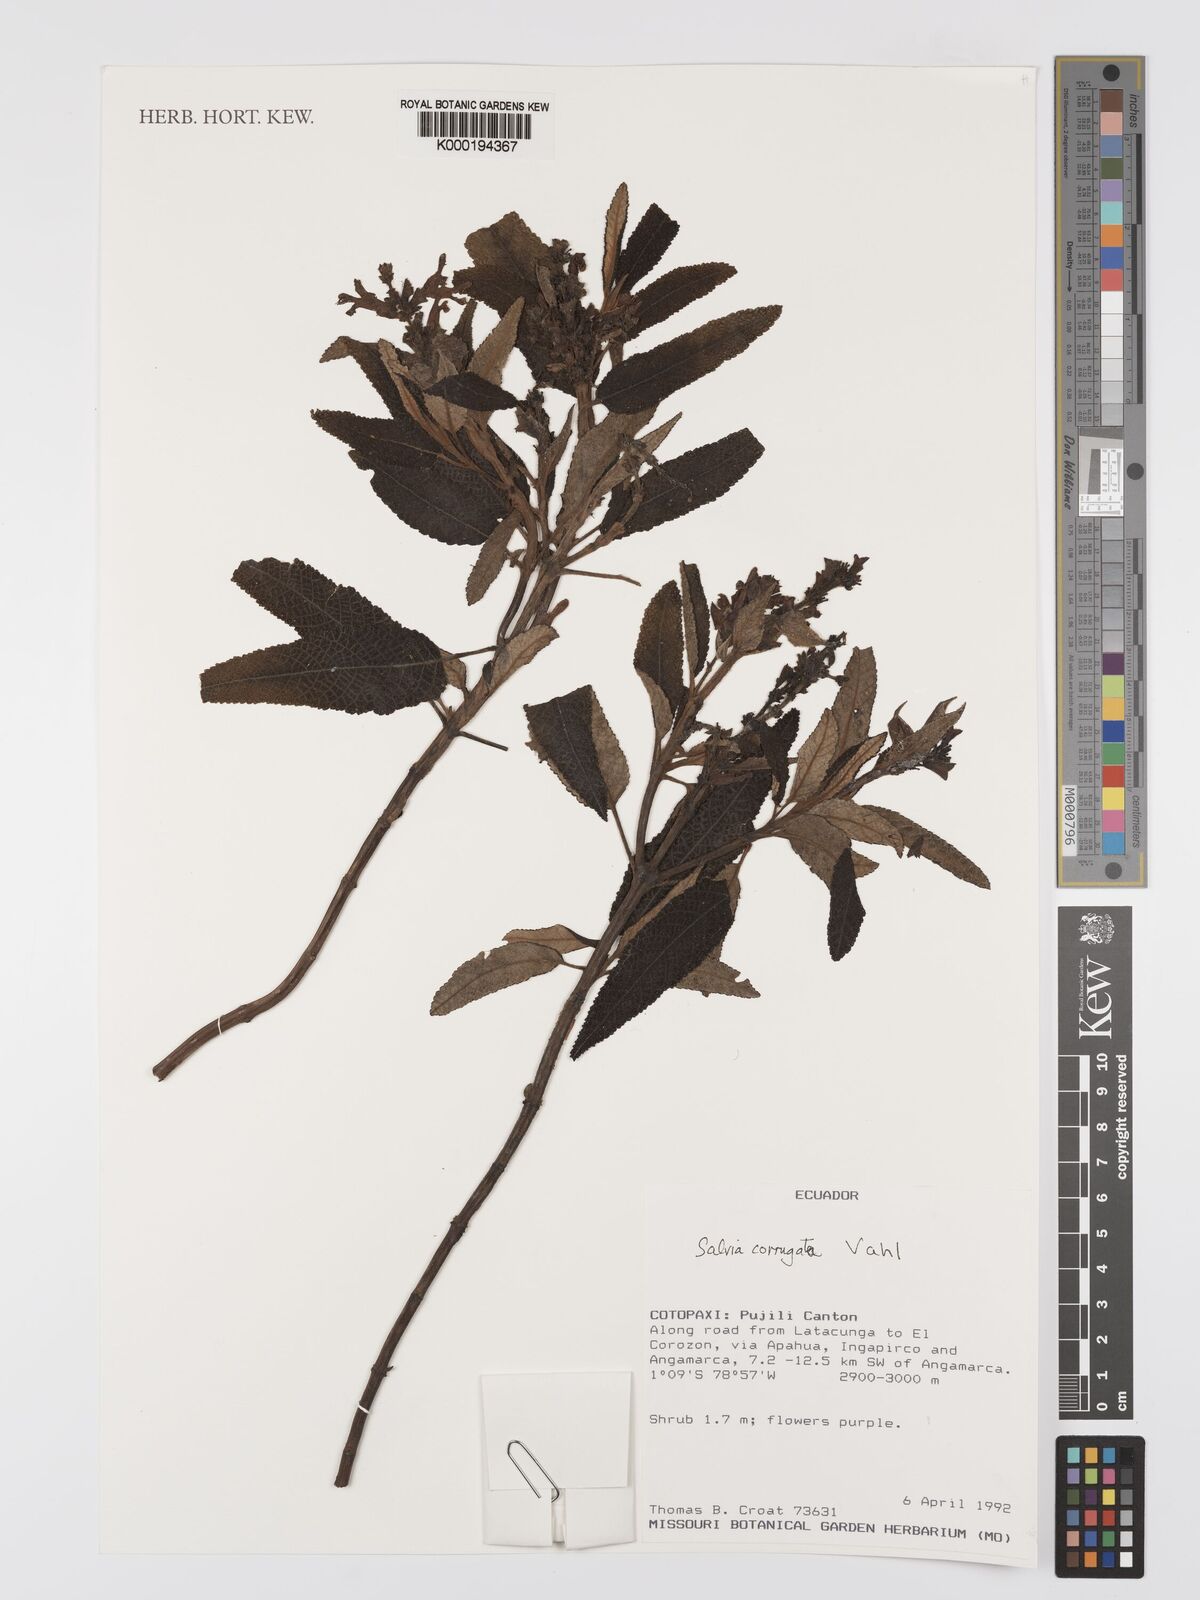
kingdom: Plantae
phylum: Tracheophyta
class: Magnoliopsida
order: Lamiales
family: Lamiaceae
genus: Salvia
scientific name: Salvia corrugata
